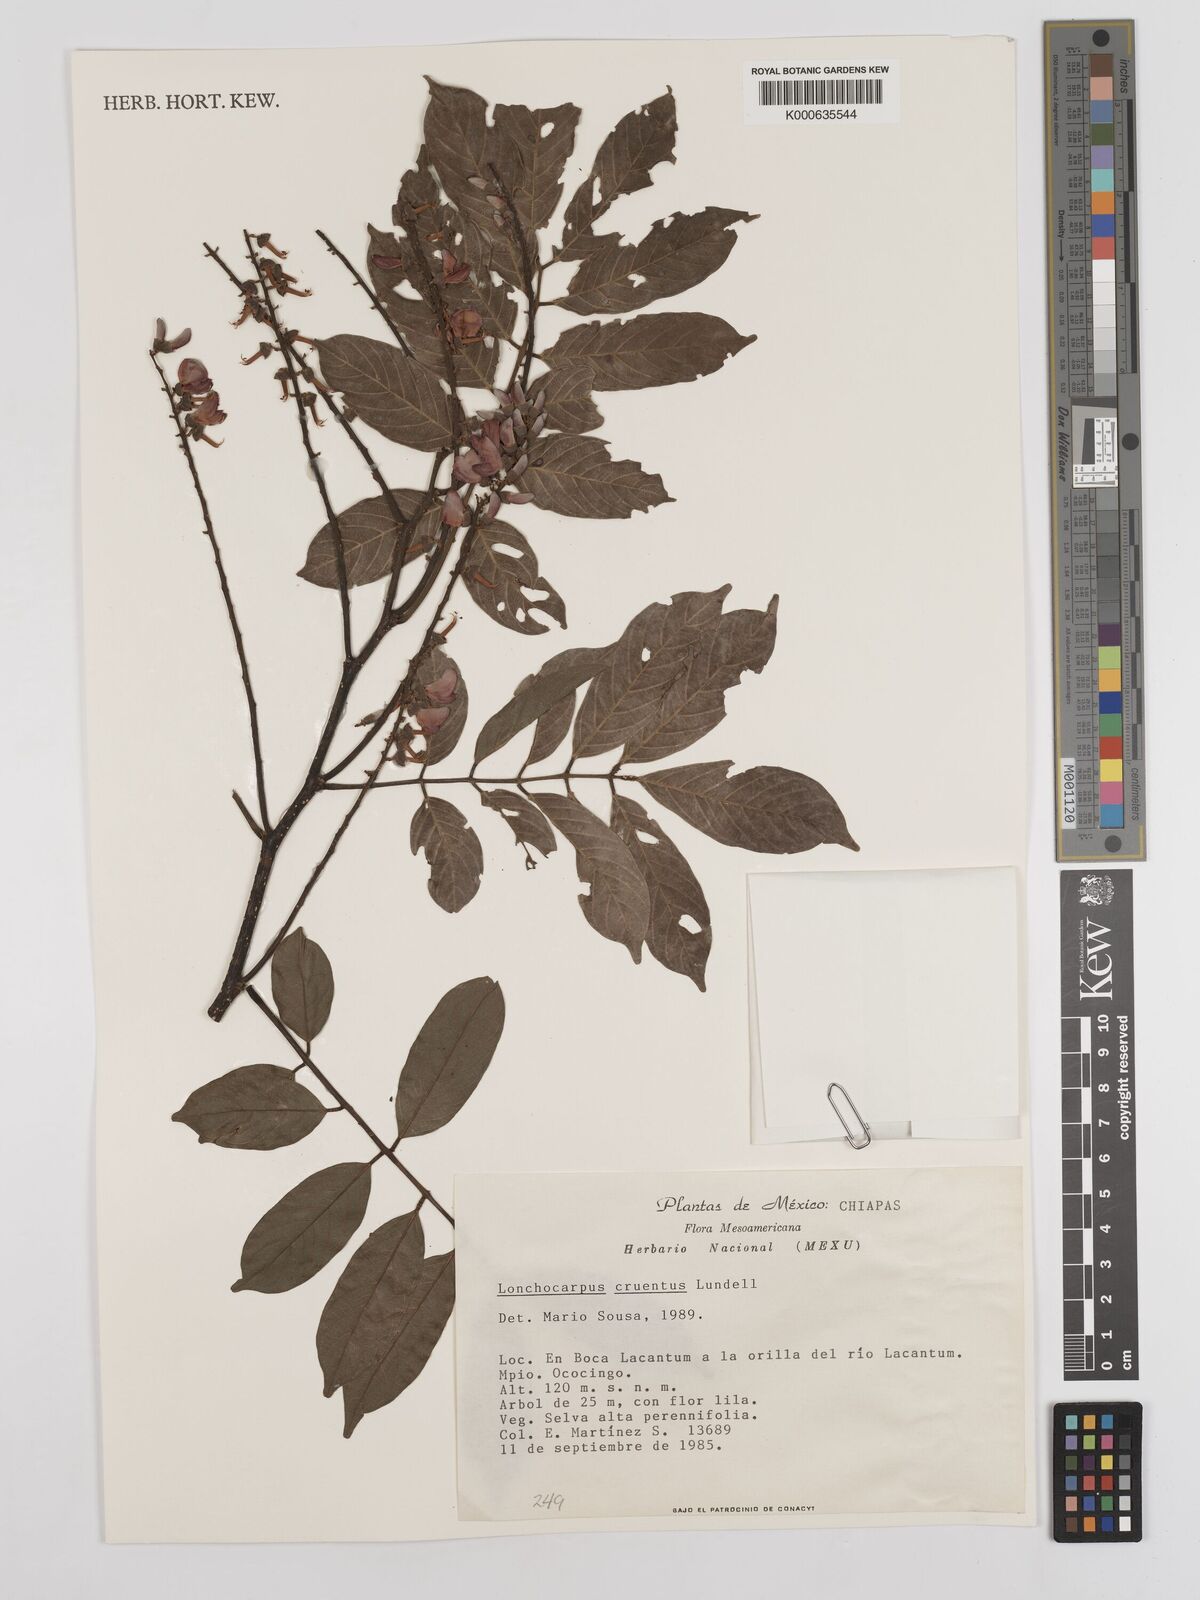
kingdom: Plantae
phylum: Tracheophyta
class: Magnoliopsida
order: Fabales
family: Fabaceae
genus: Lonchocarpus
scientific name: Lonchocarpus cruentus
